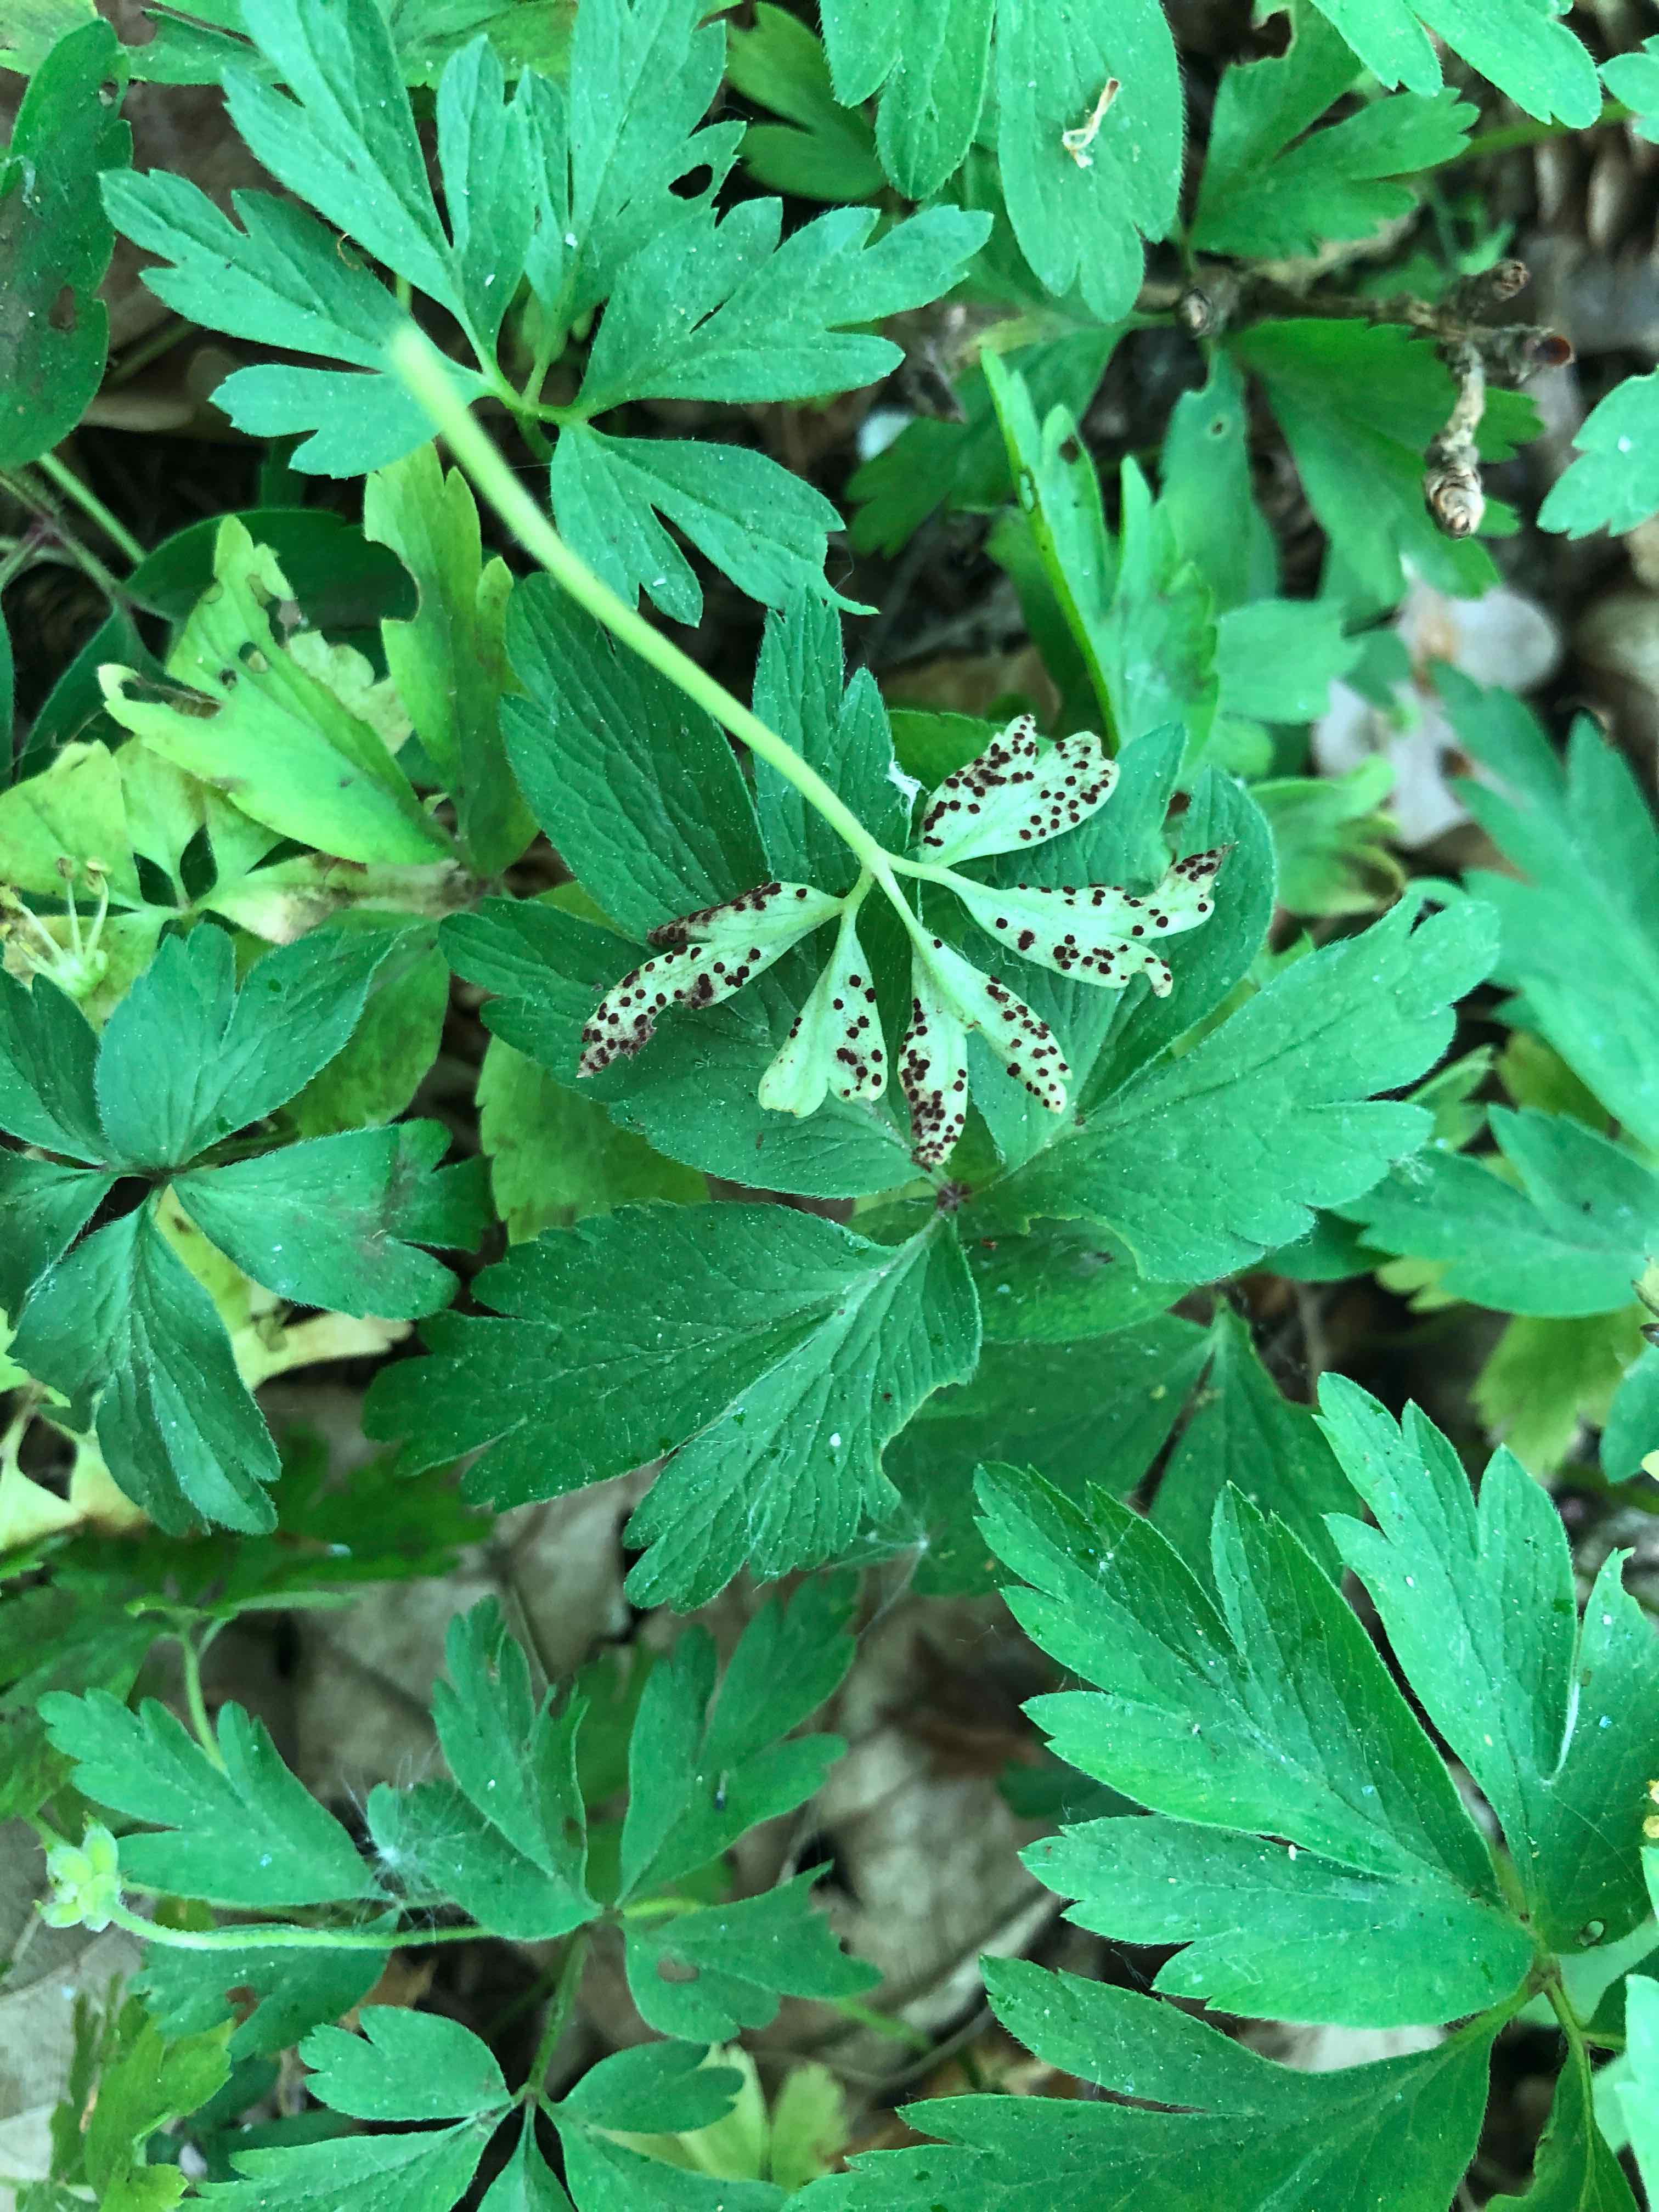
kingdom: Fungi
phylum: Basidiomycota
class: Pucciniomycetes
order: Pucciniales
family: Tranzscheliaceae
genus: Tranzschelia
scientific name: Tranzschelia anemones
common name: anemone-knæksporerust
